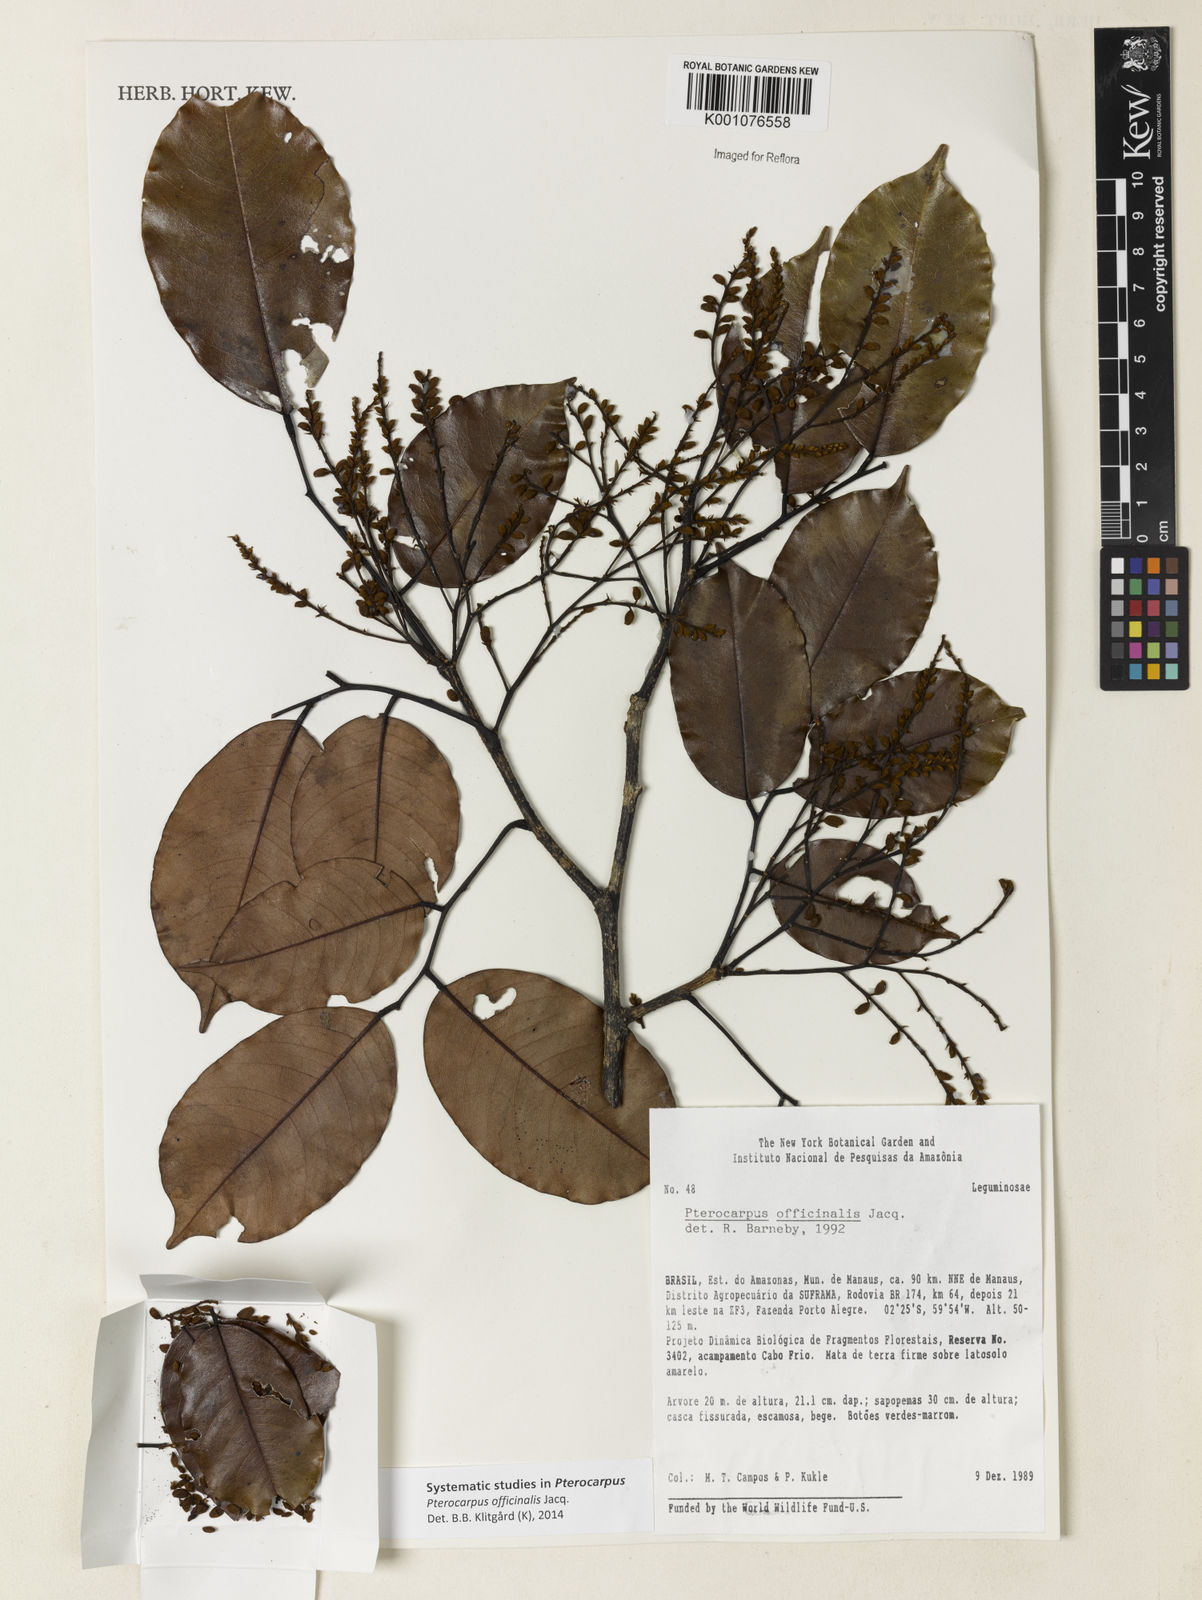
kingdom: Plantae
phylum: Tracheophyta
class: Magnoliopsida
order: Fabales
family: Fabaceae
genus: Pterocarpus
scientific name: Pterocarpus officinalis
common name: Bloodwood
